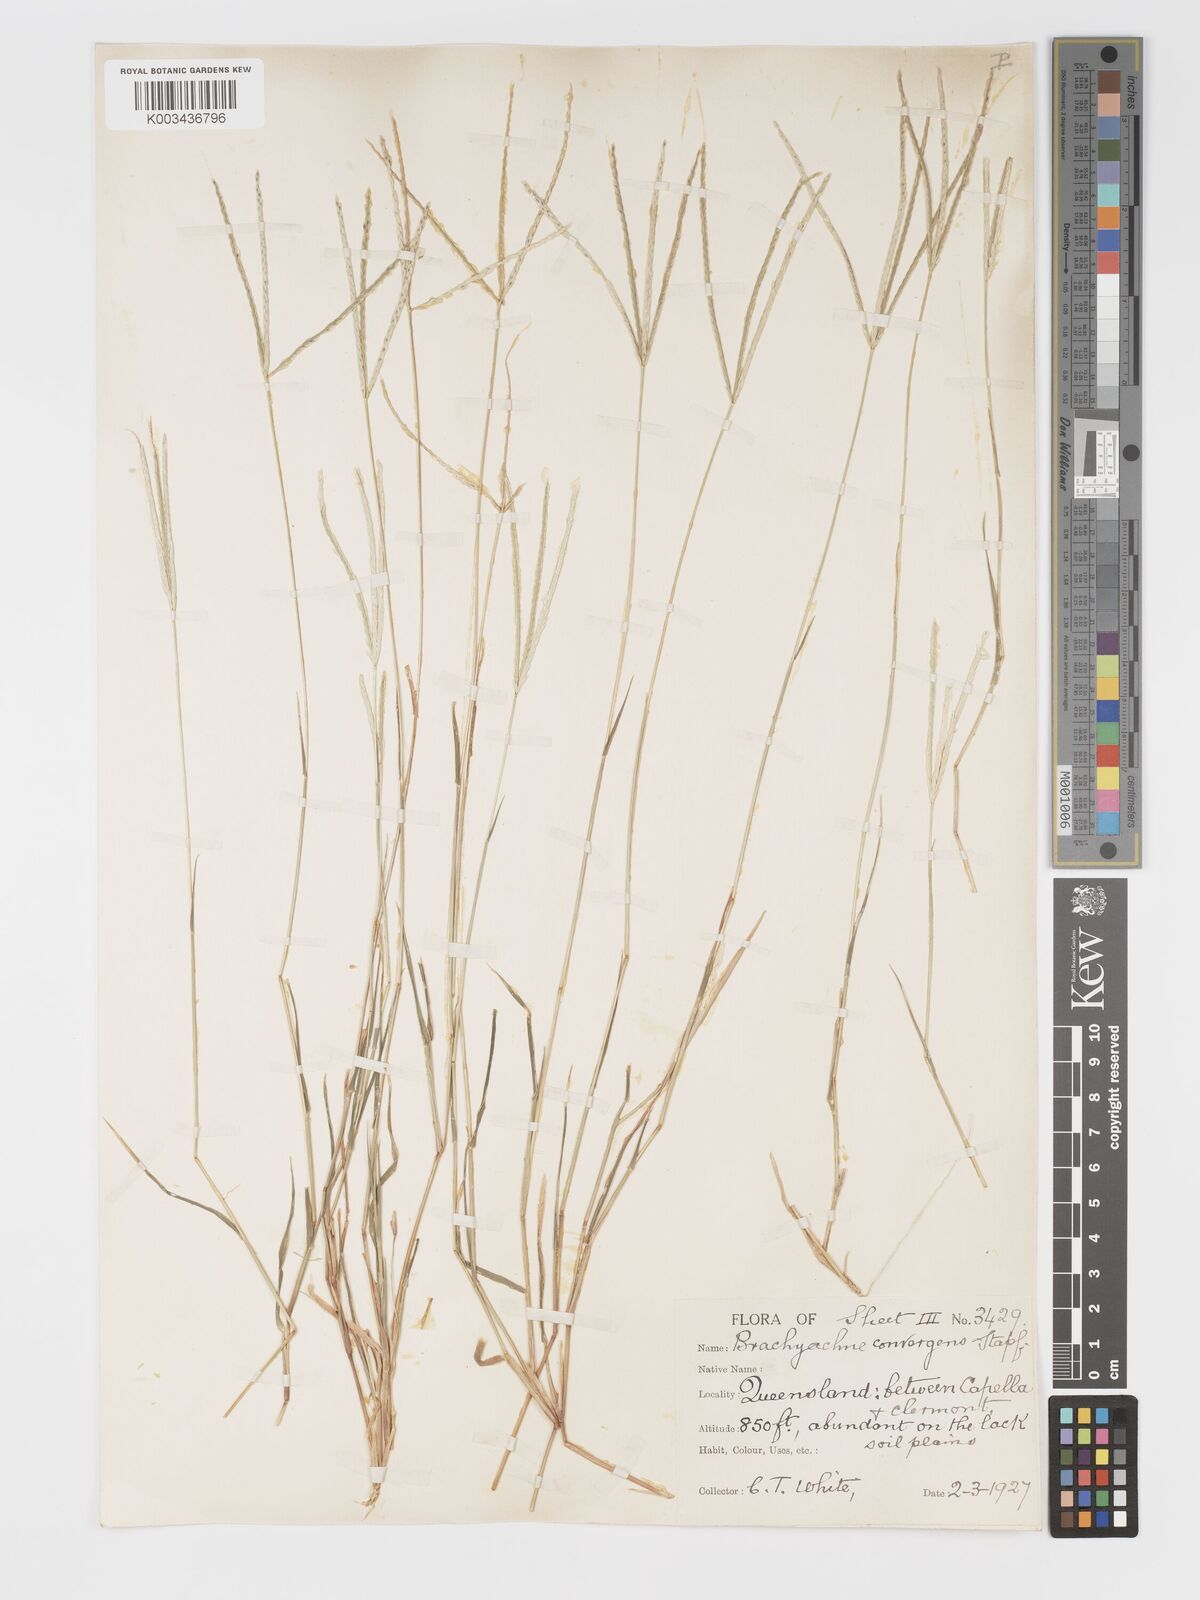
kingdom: Plantae
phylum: Tracheophyta
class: Liliopsida
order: Poales
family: Poaceae
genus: Cynodon
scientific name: Cynodon convergens
